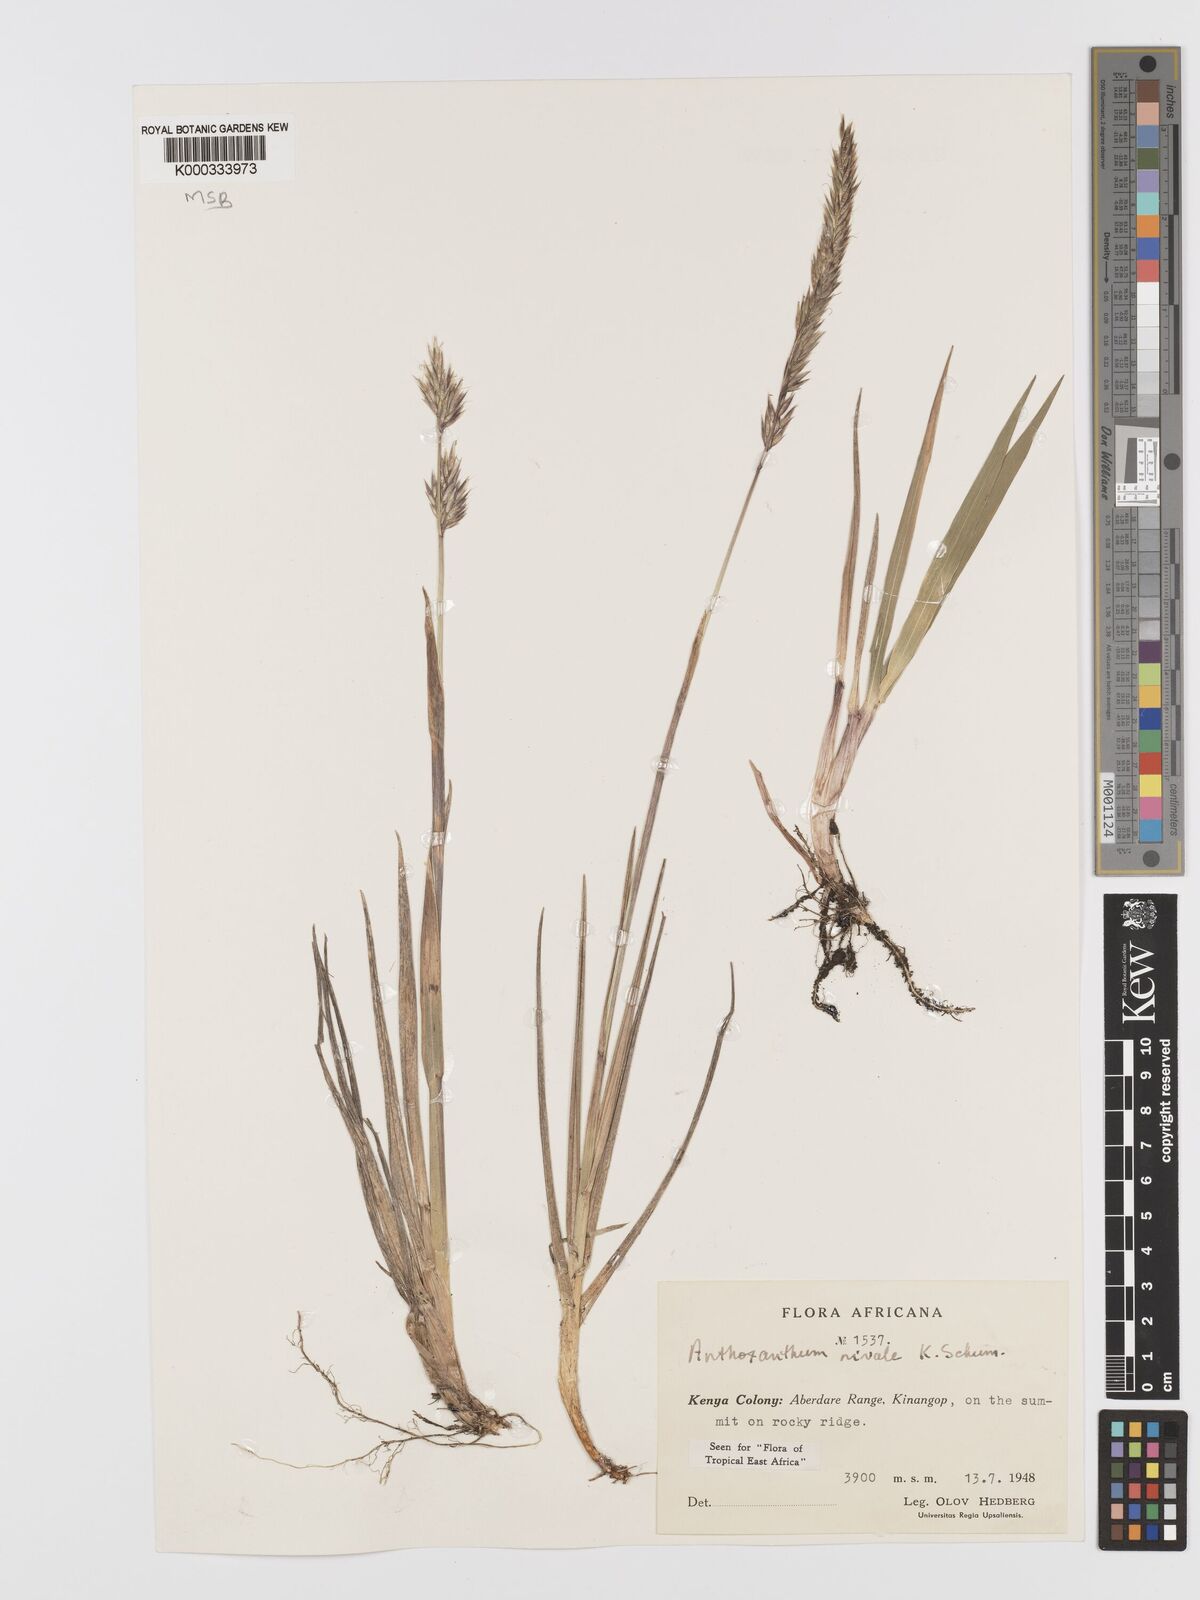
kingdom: Plantae
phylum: Tracheophyta
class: Liliopsida
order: Poales
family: Poaceae
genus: Anthoxanthum
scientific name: Anthoxanthum
